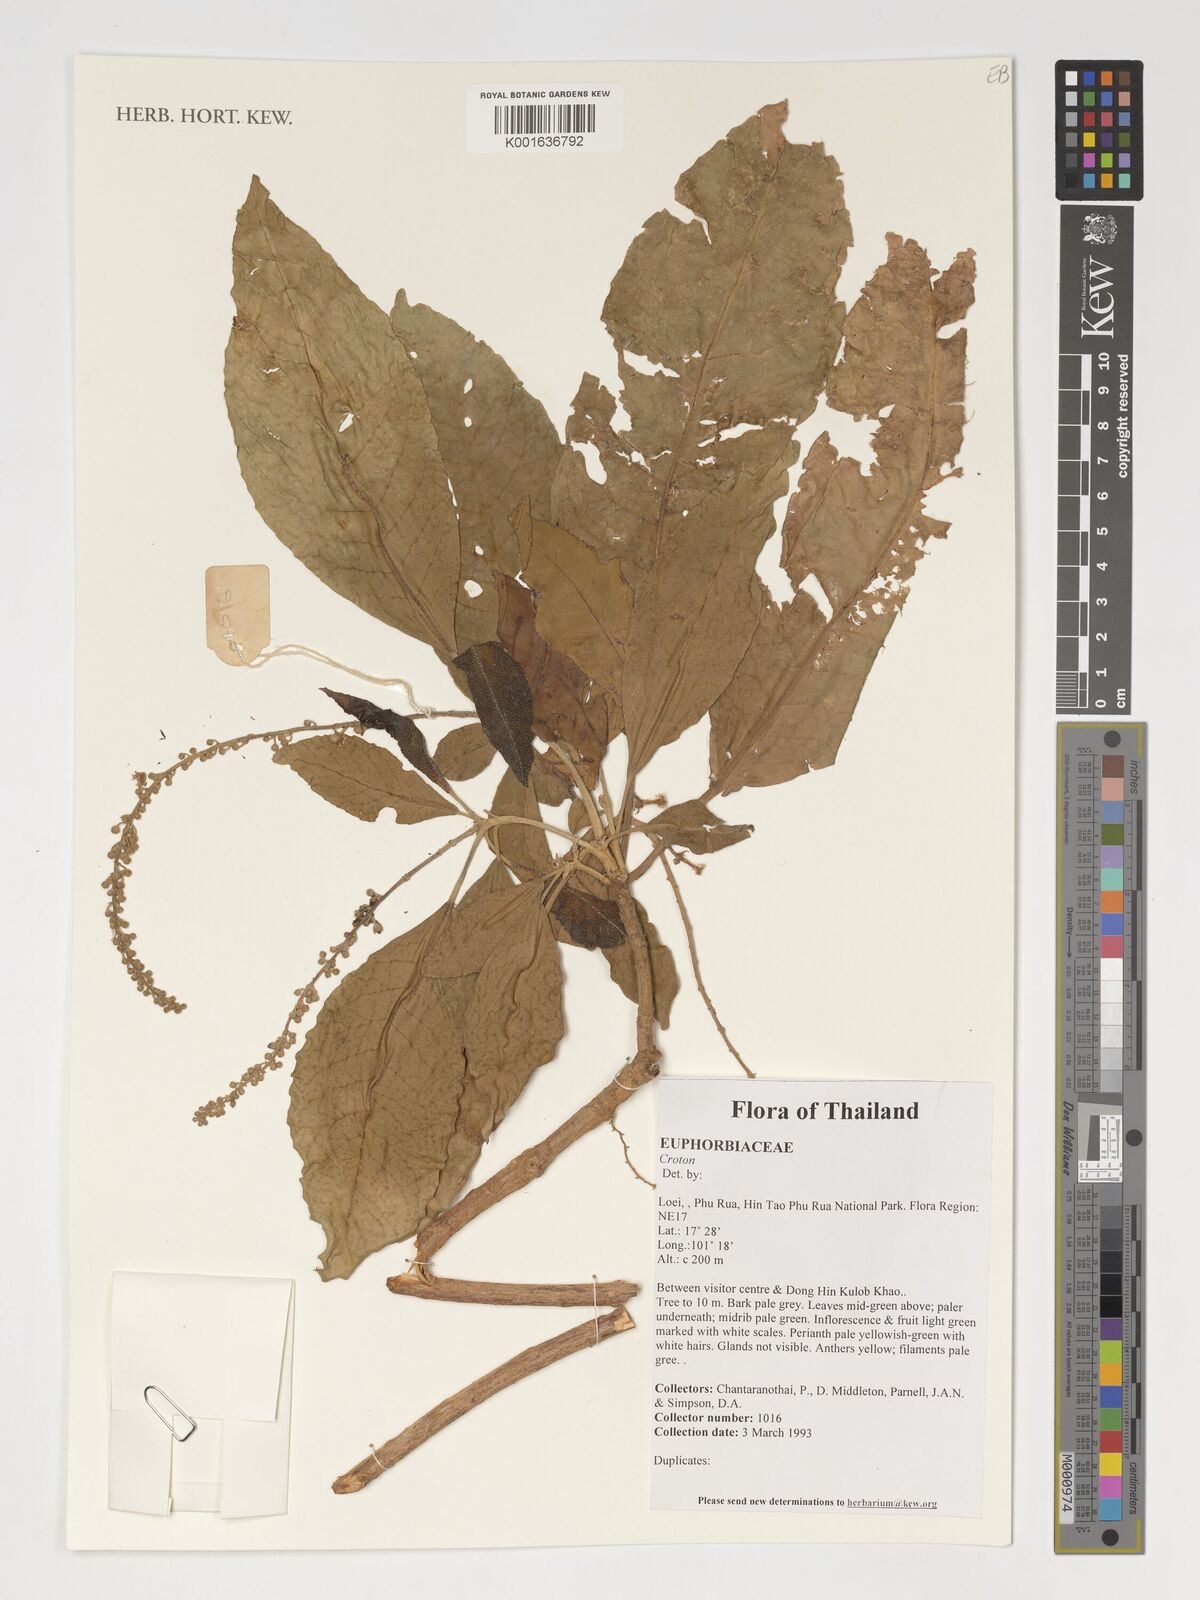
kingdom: Plantae
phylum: Tracheophyta
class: Magnoliopsida
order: Malpighiales
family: Euphorbiaceae
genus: Croton
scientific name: Croton
